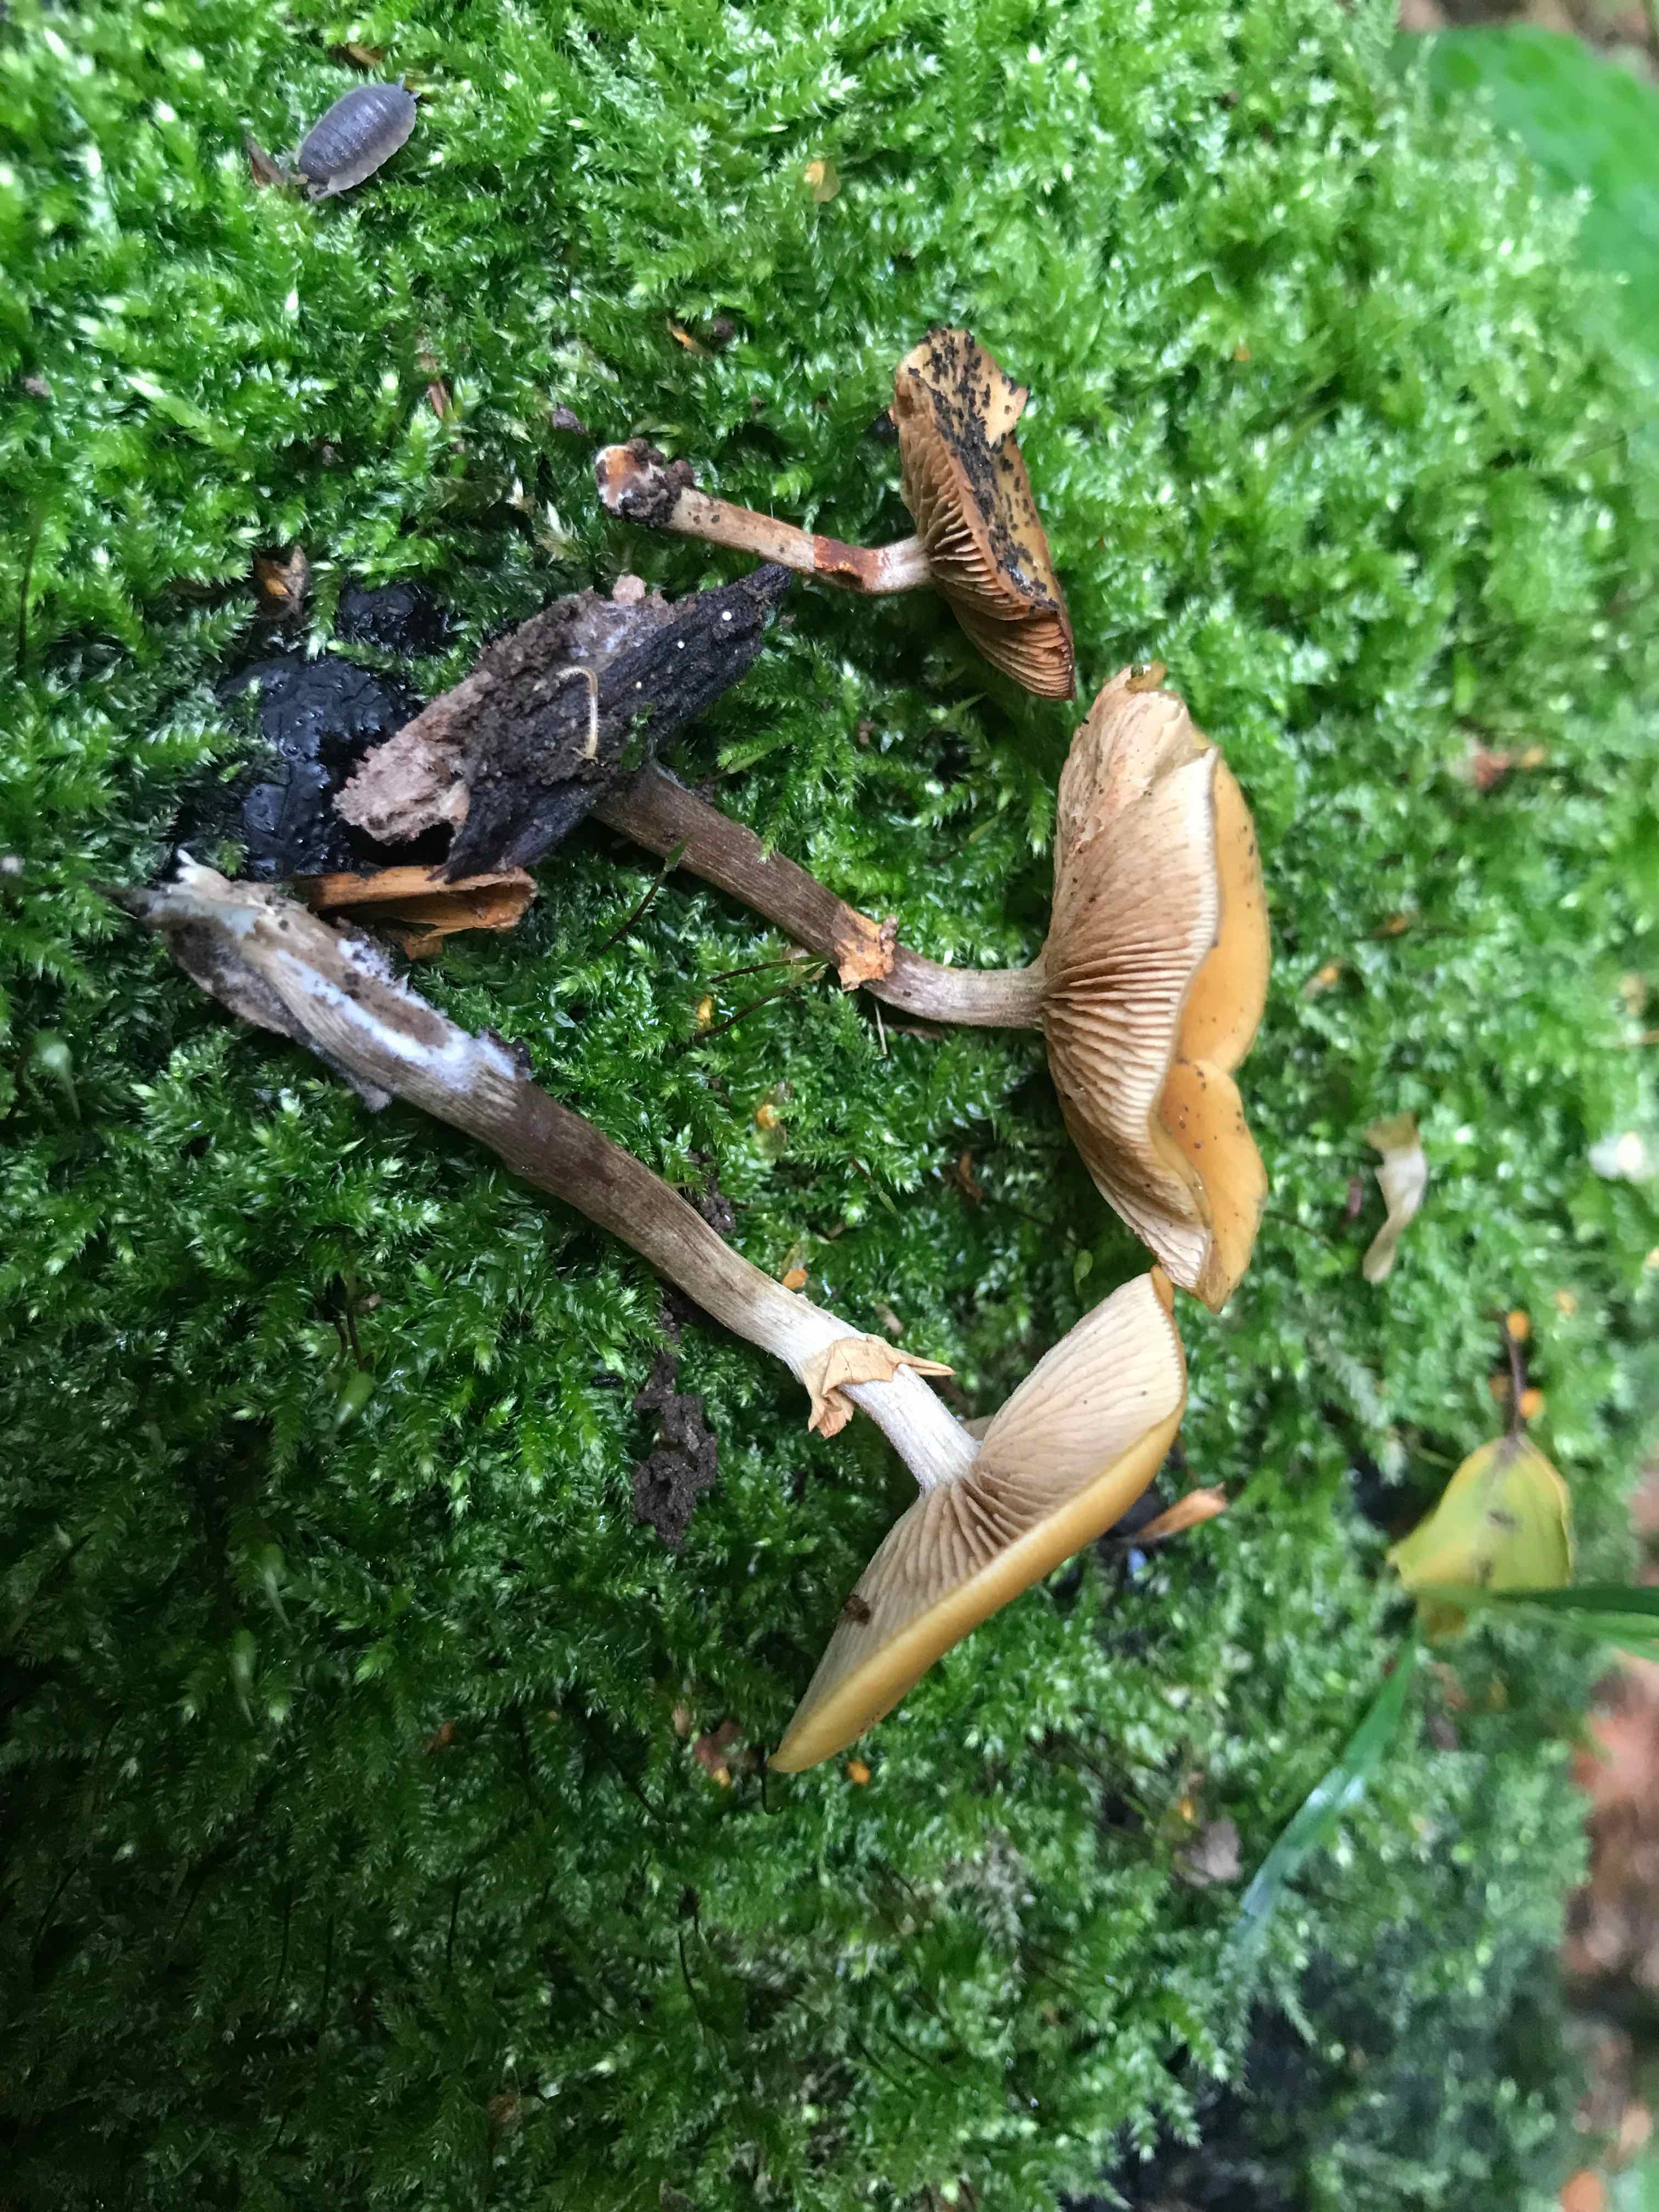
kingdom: Fungi
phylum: Basidiomycota
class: Agaricomycetes
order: Agaricales
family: Hymenogastraceae
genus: Galerina
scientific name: Galerina marginata
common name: randbæltet hjelmhat
